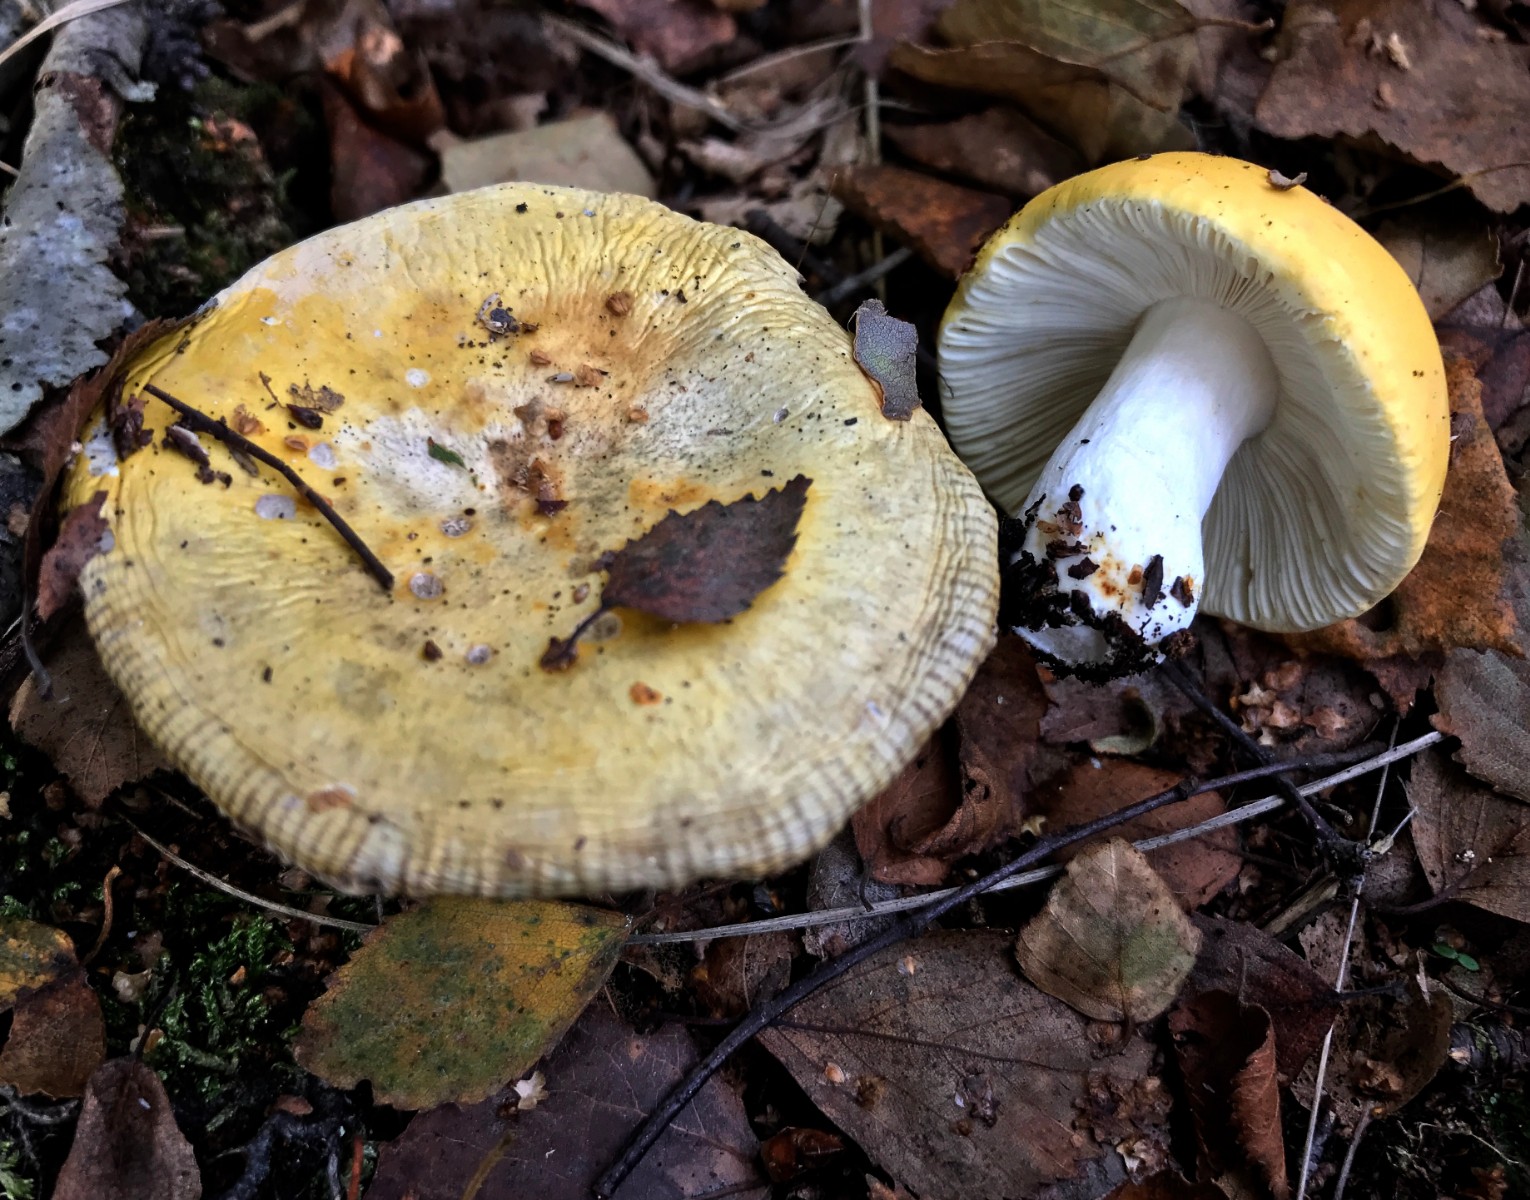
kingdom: Fungi
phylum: Basidiomycota
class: Agaricomycetes
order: Russulales
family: Russulaceae
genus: Russula
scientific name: Russula claroflava
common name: birke-skørhat
